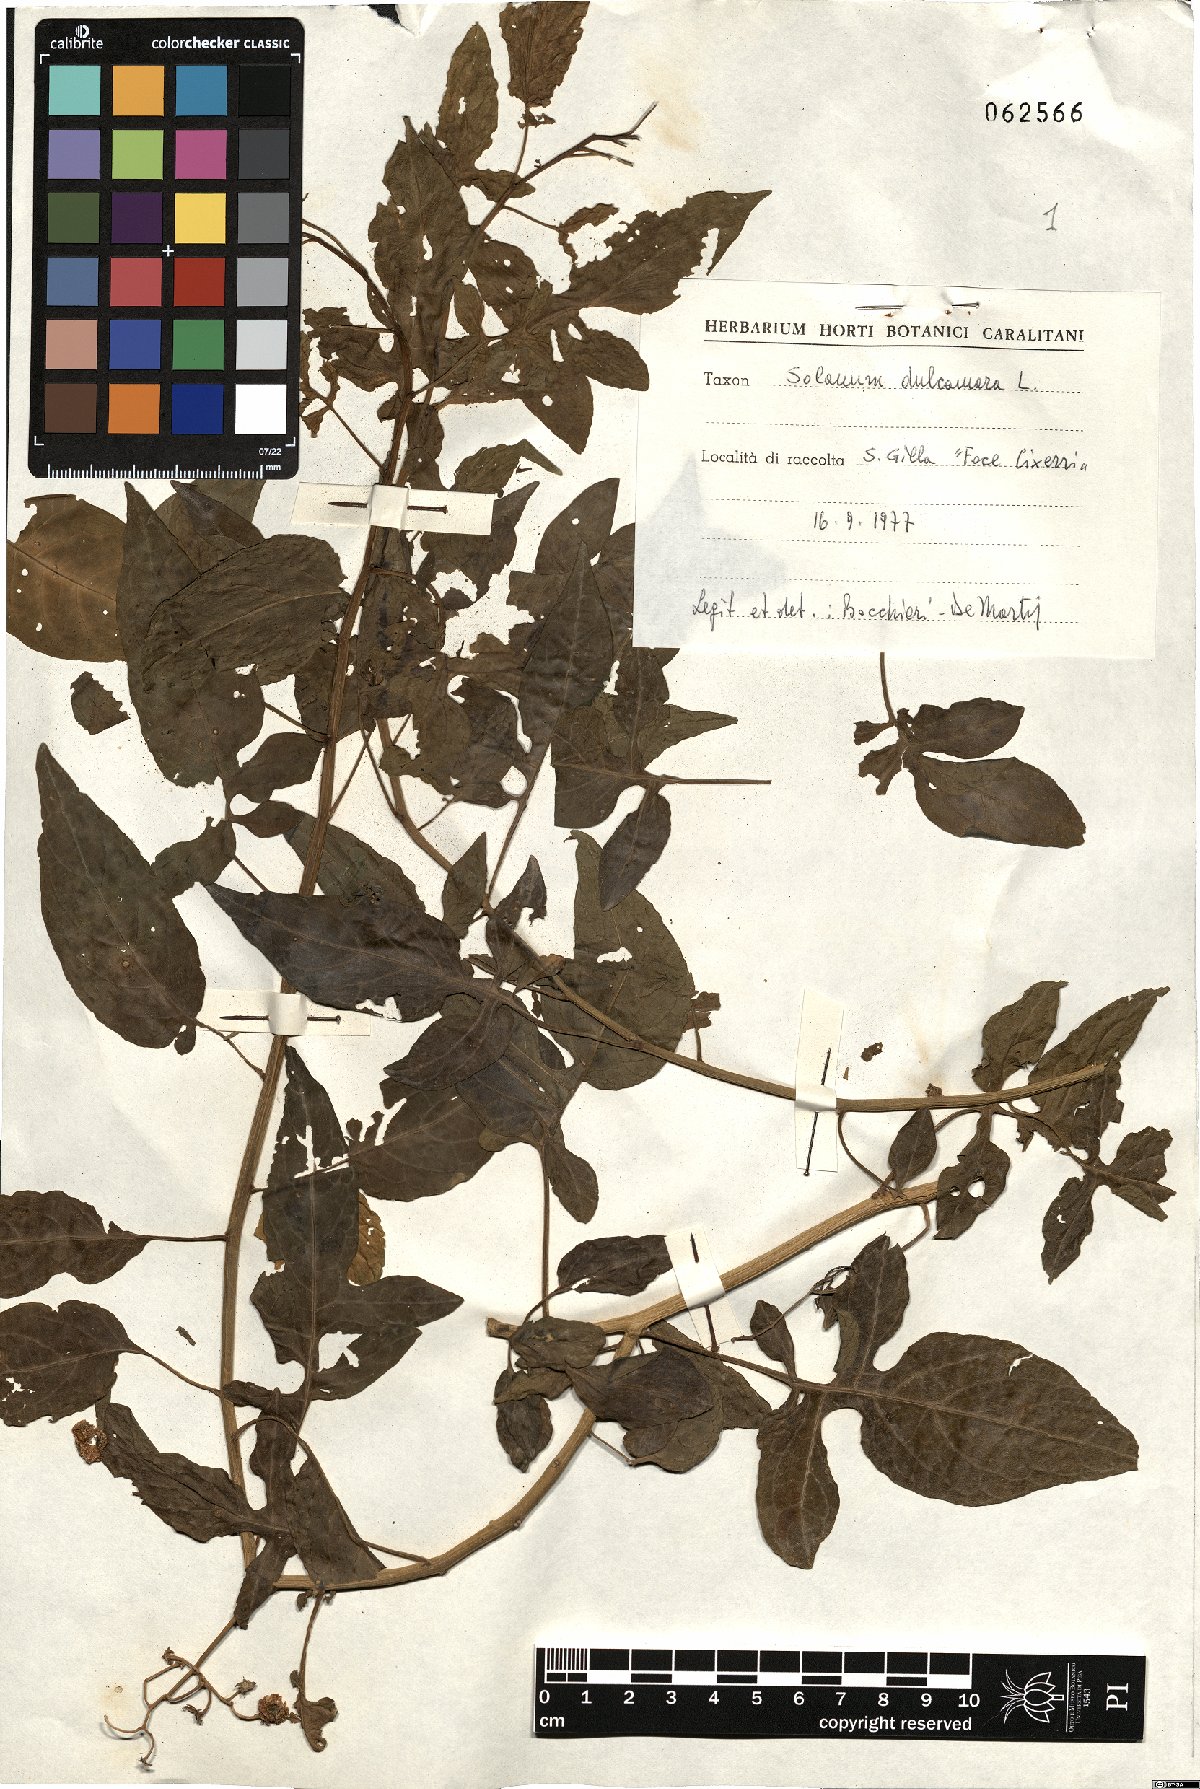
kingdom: Plantae
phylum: Tracheophyta
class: Magnoliopsida
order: Solanales
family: Solanaceae
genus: Solanum
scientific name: Solanum dulcamara
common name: Climbing nightshade
